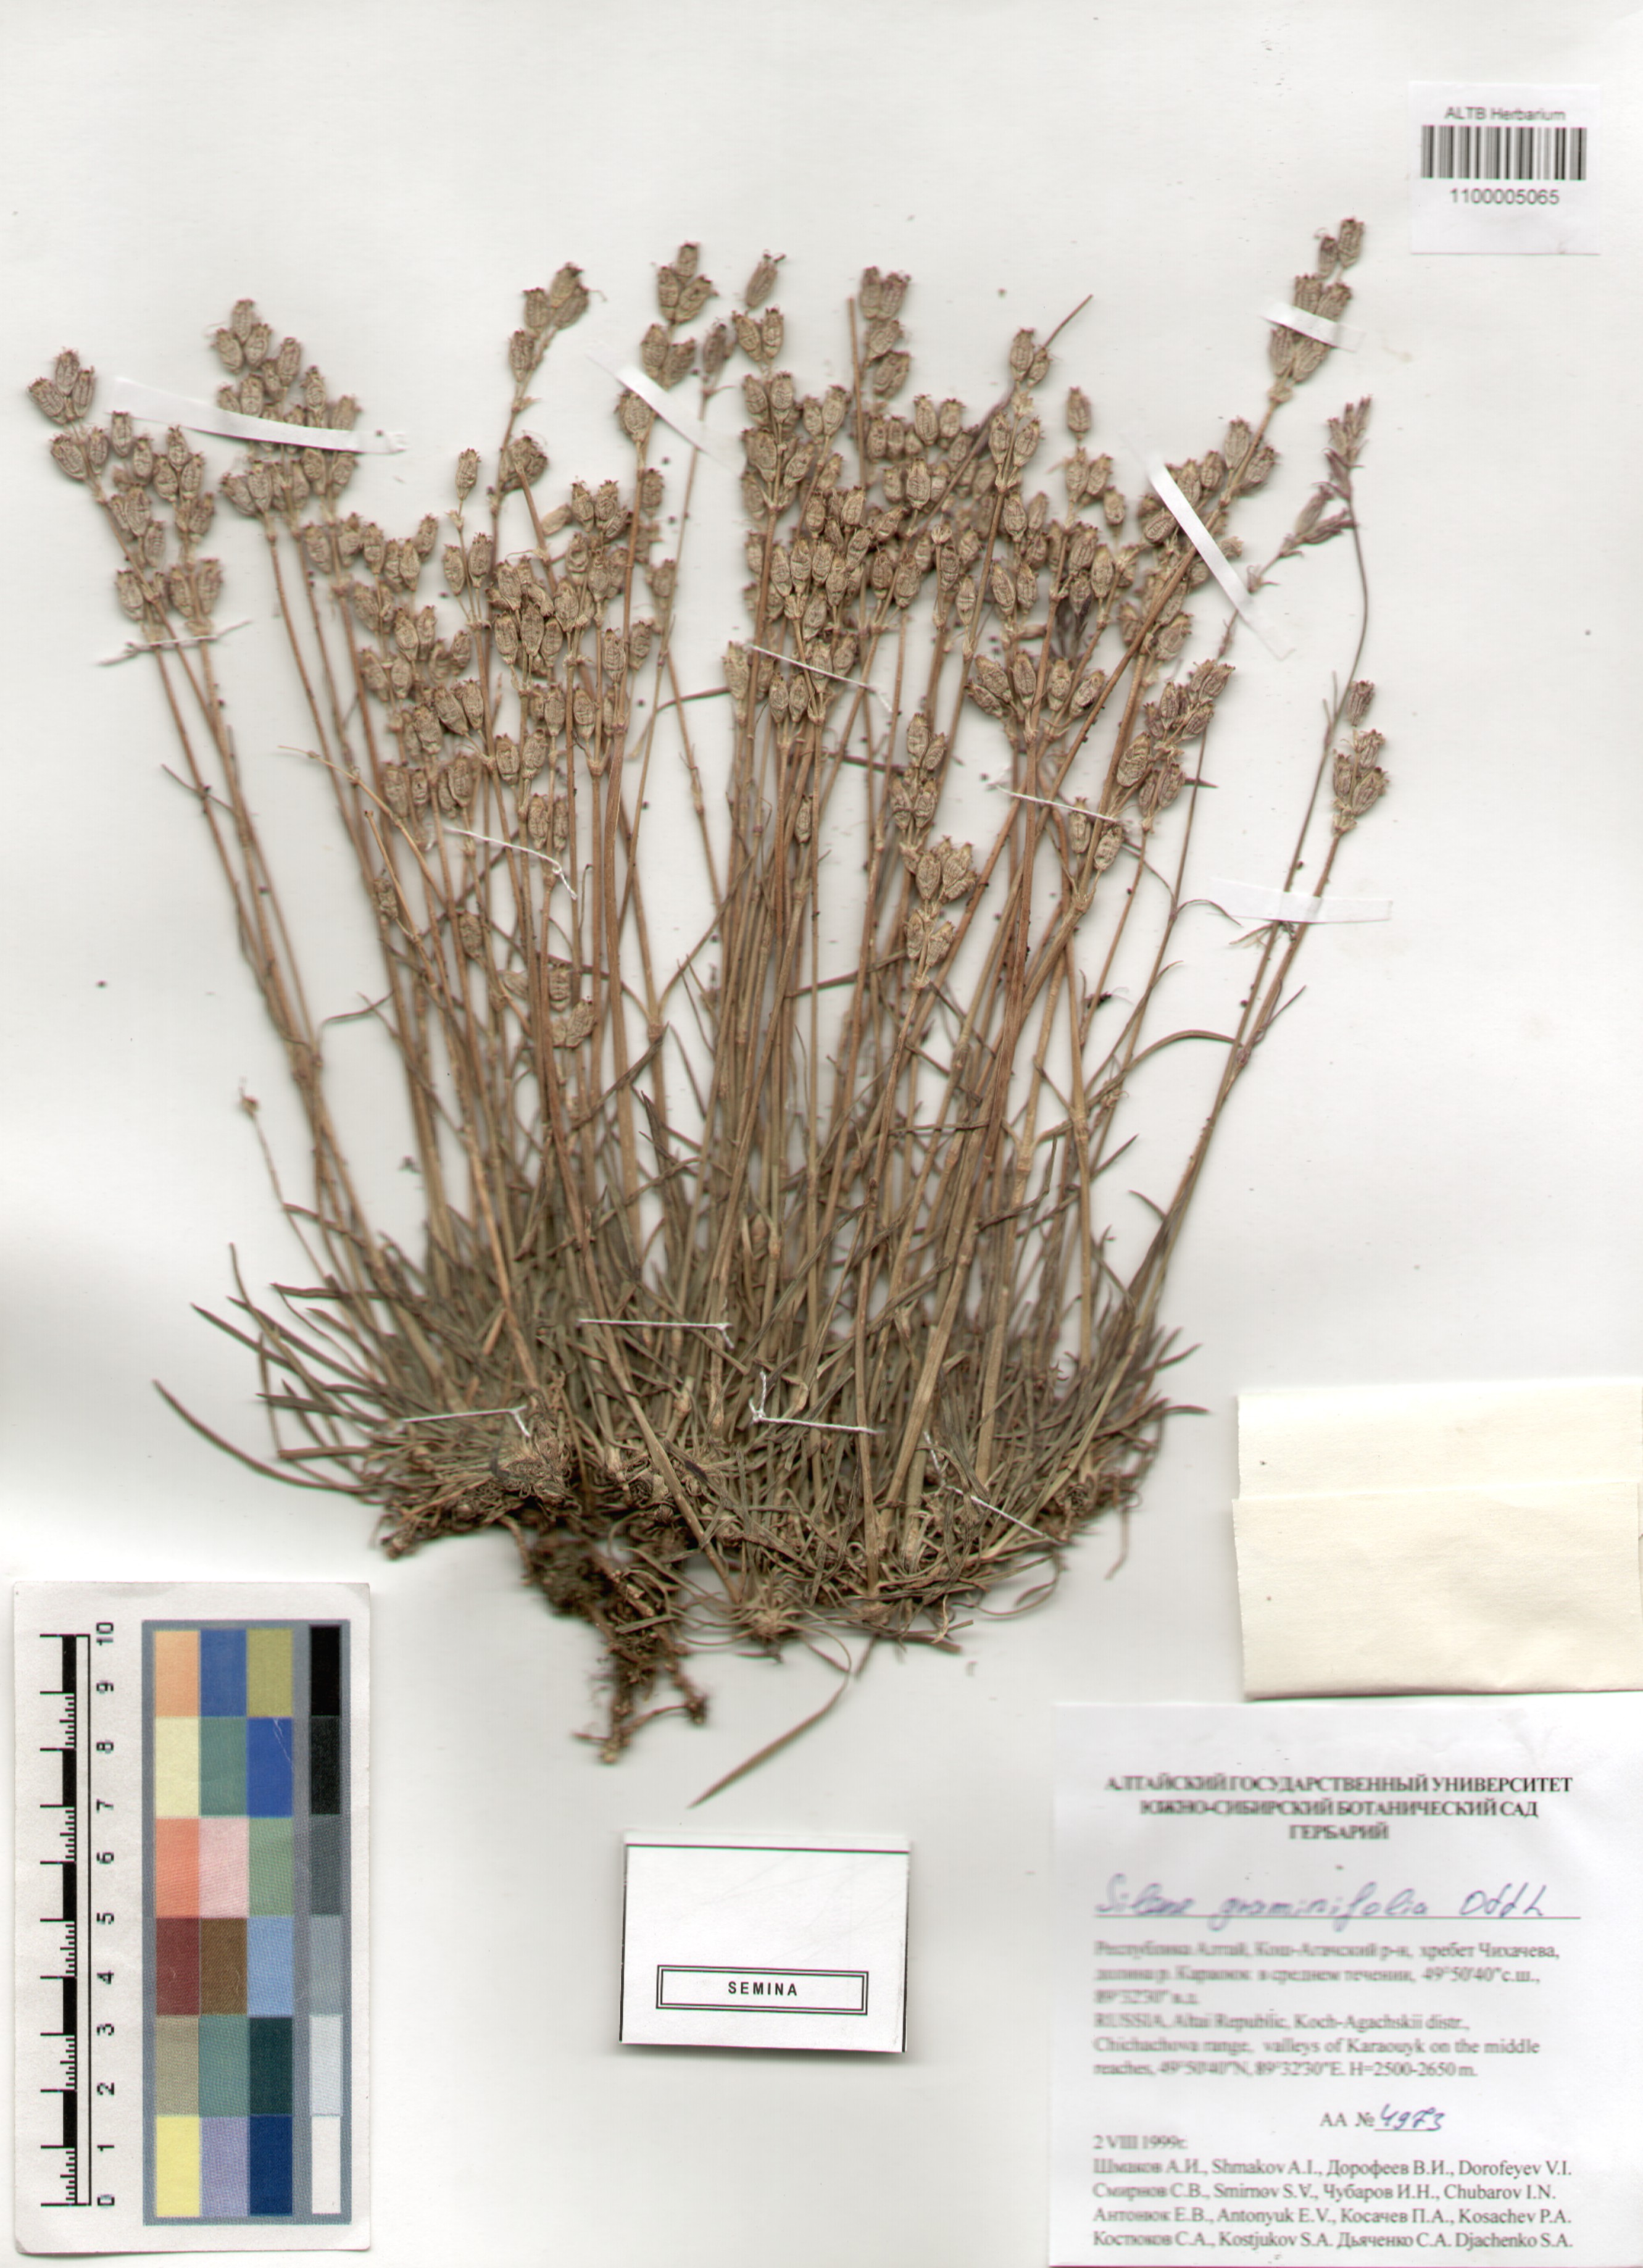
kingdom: Plantae
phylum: Tracheophyta
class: Magnoliopsida
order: Caryophyllales
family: Caryophyllaceae
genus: Silene
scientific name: Silene graminifolia
